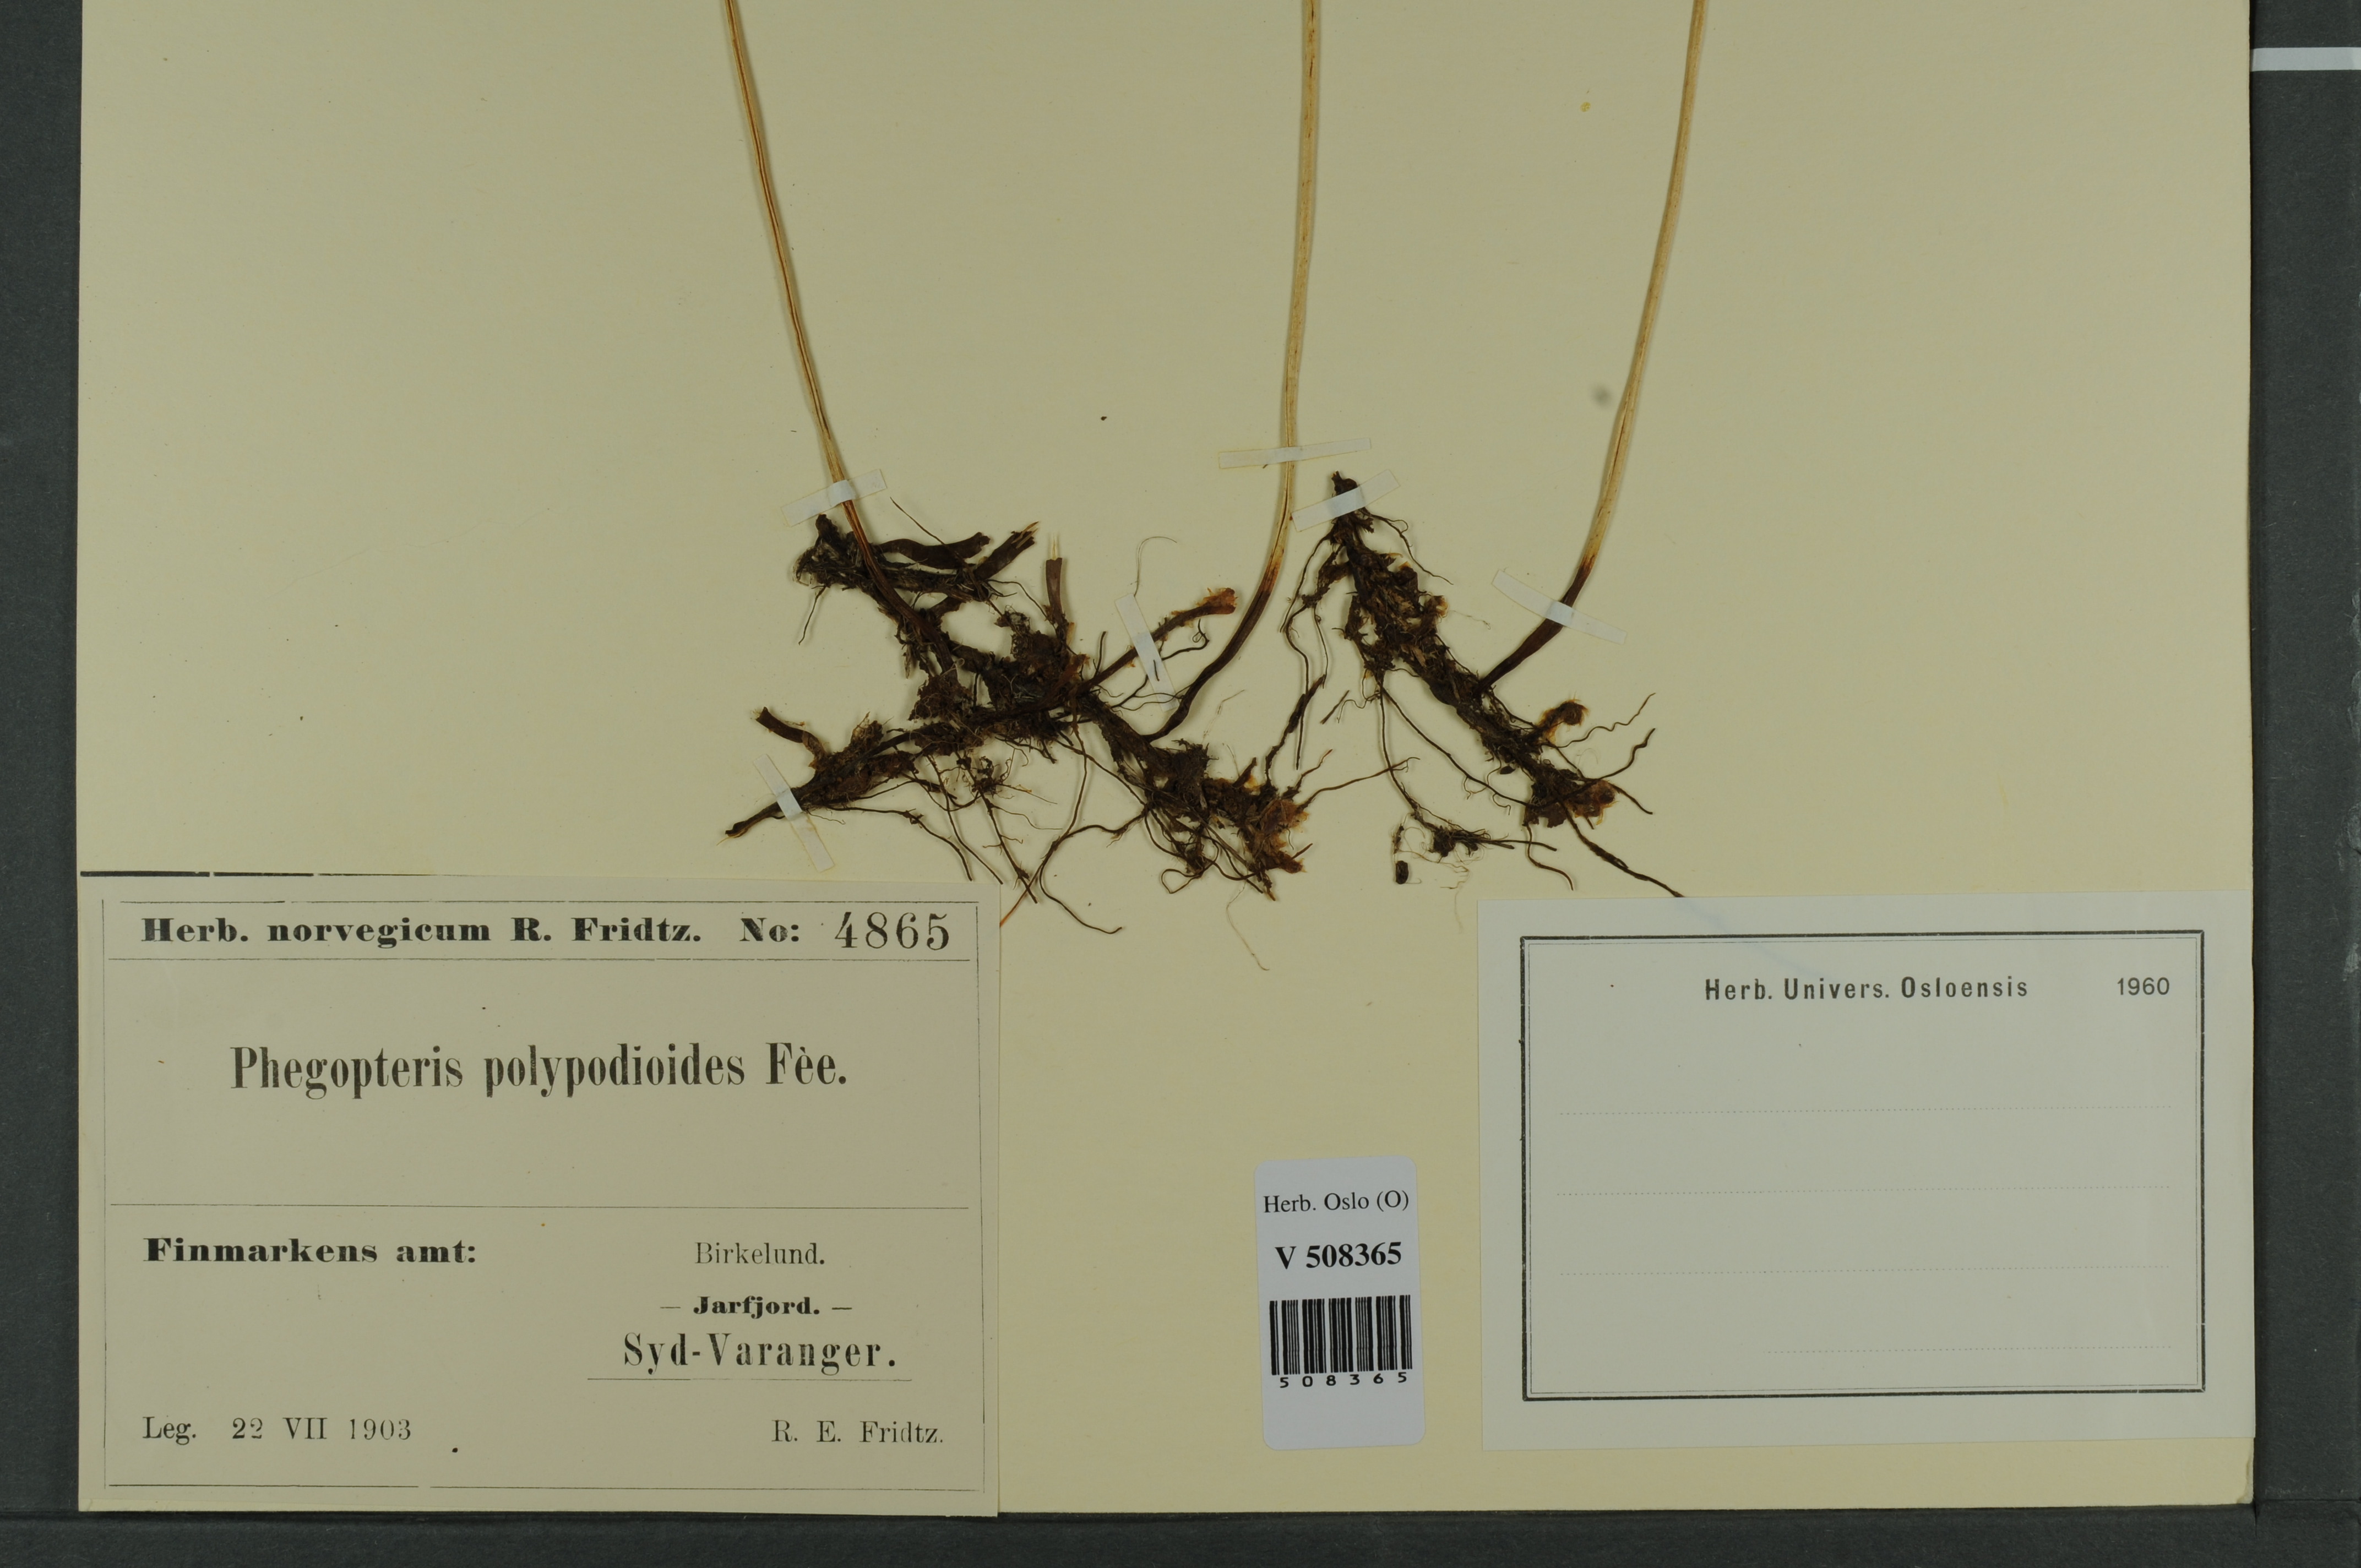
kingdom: Plantae
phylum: Tracheophyta
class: Polypodiopsida
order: Polypodiales
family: Thelypteridaceae
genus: Phegopteris
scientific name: Phegopteris connectilis
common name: Beech fern
